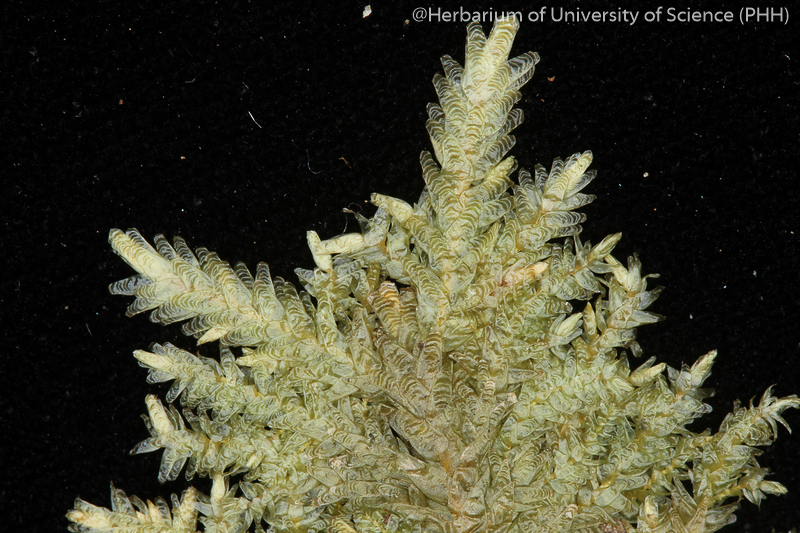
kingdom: Plantae
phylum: Bryophyta
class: Bryopsida
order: Hypnales
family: Pterobryaceae
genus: Calyptothecium
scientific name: Calyptothecium urvilleanum
